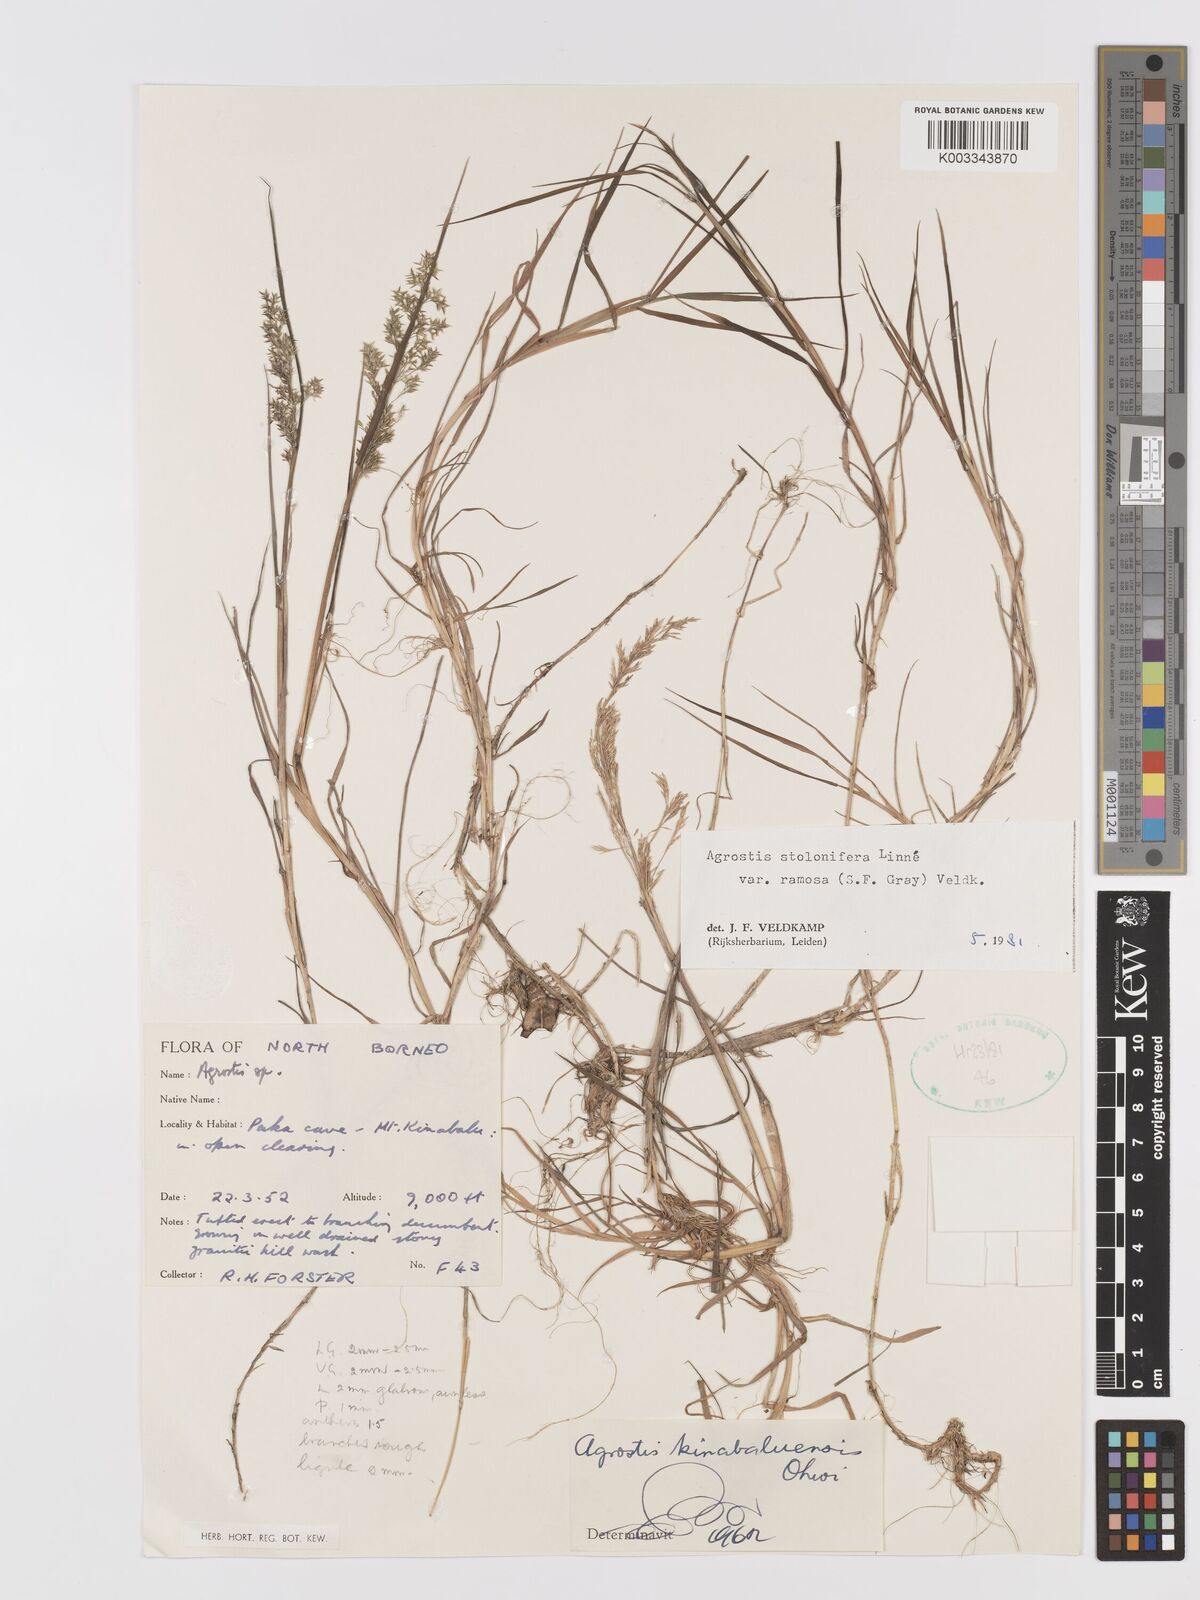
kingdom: Plantae
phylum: Tracheophyta
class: Liliopsida
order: Poales
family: Poaceae
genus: Agrostis
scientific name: Agrostis gigantea
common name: Black bent
